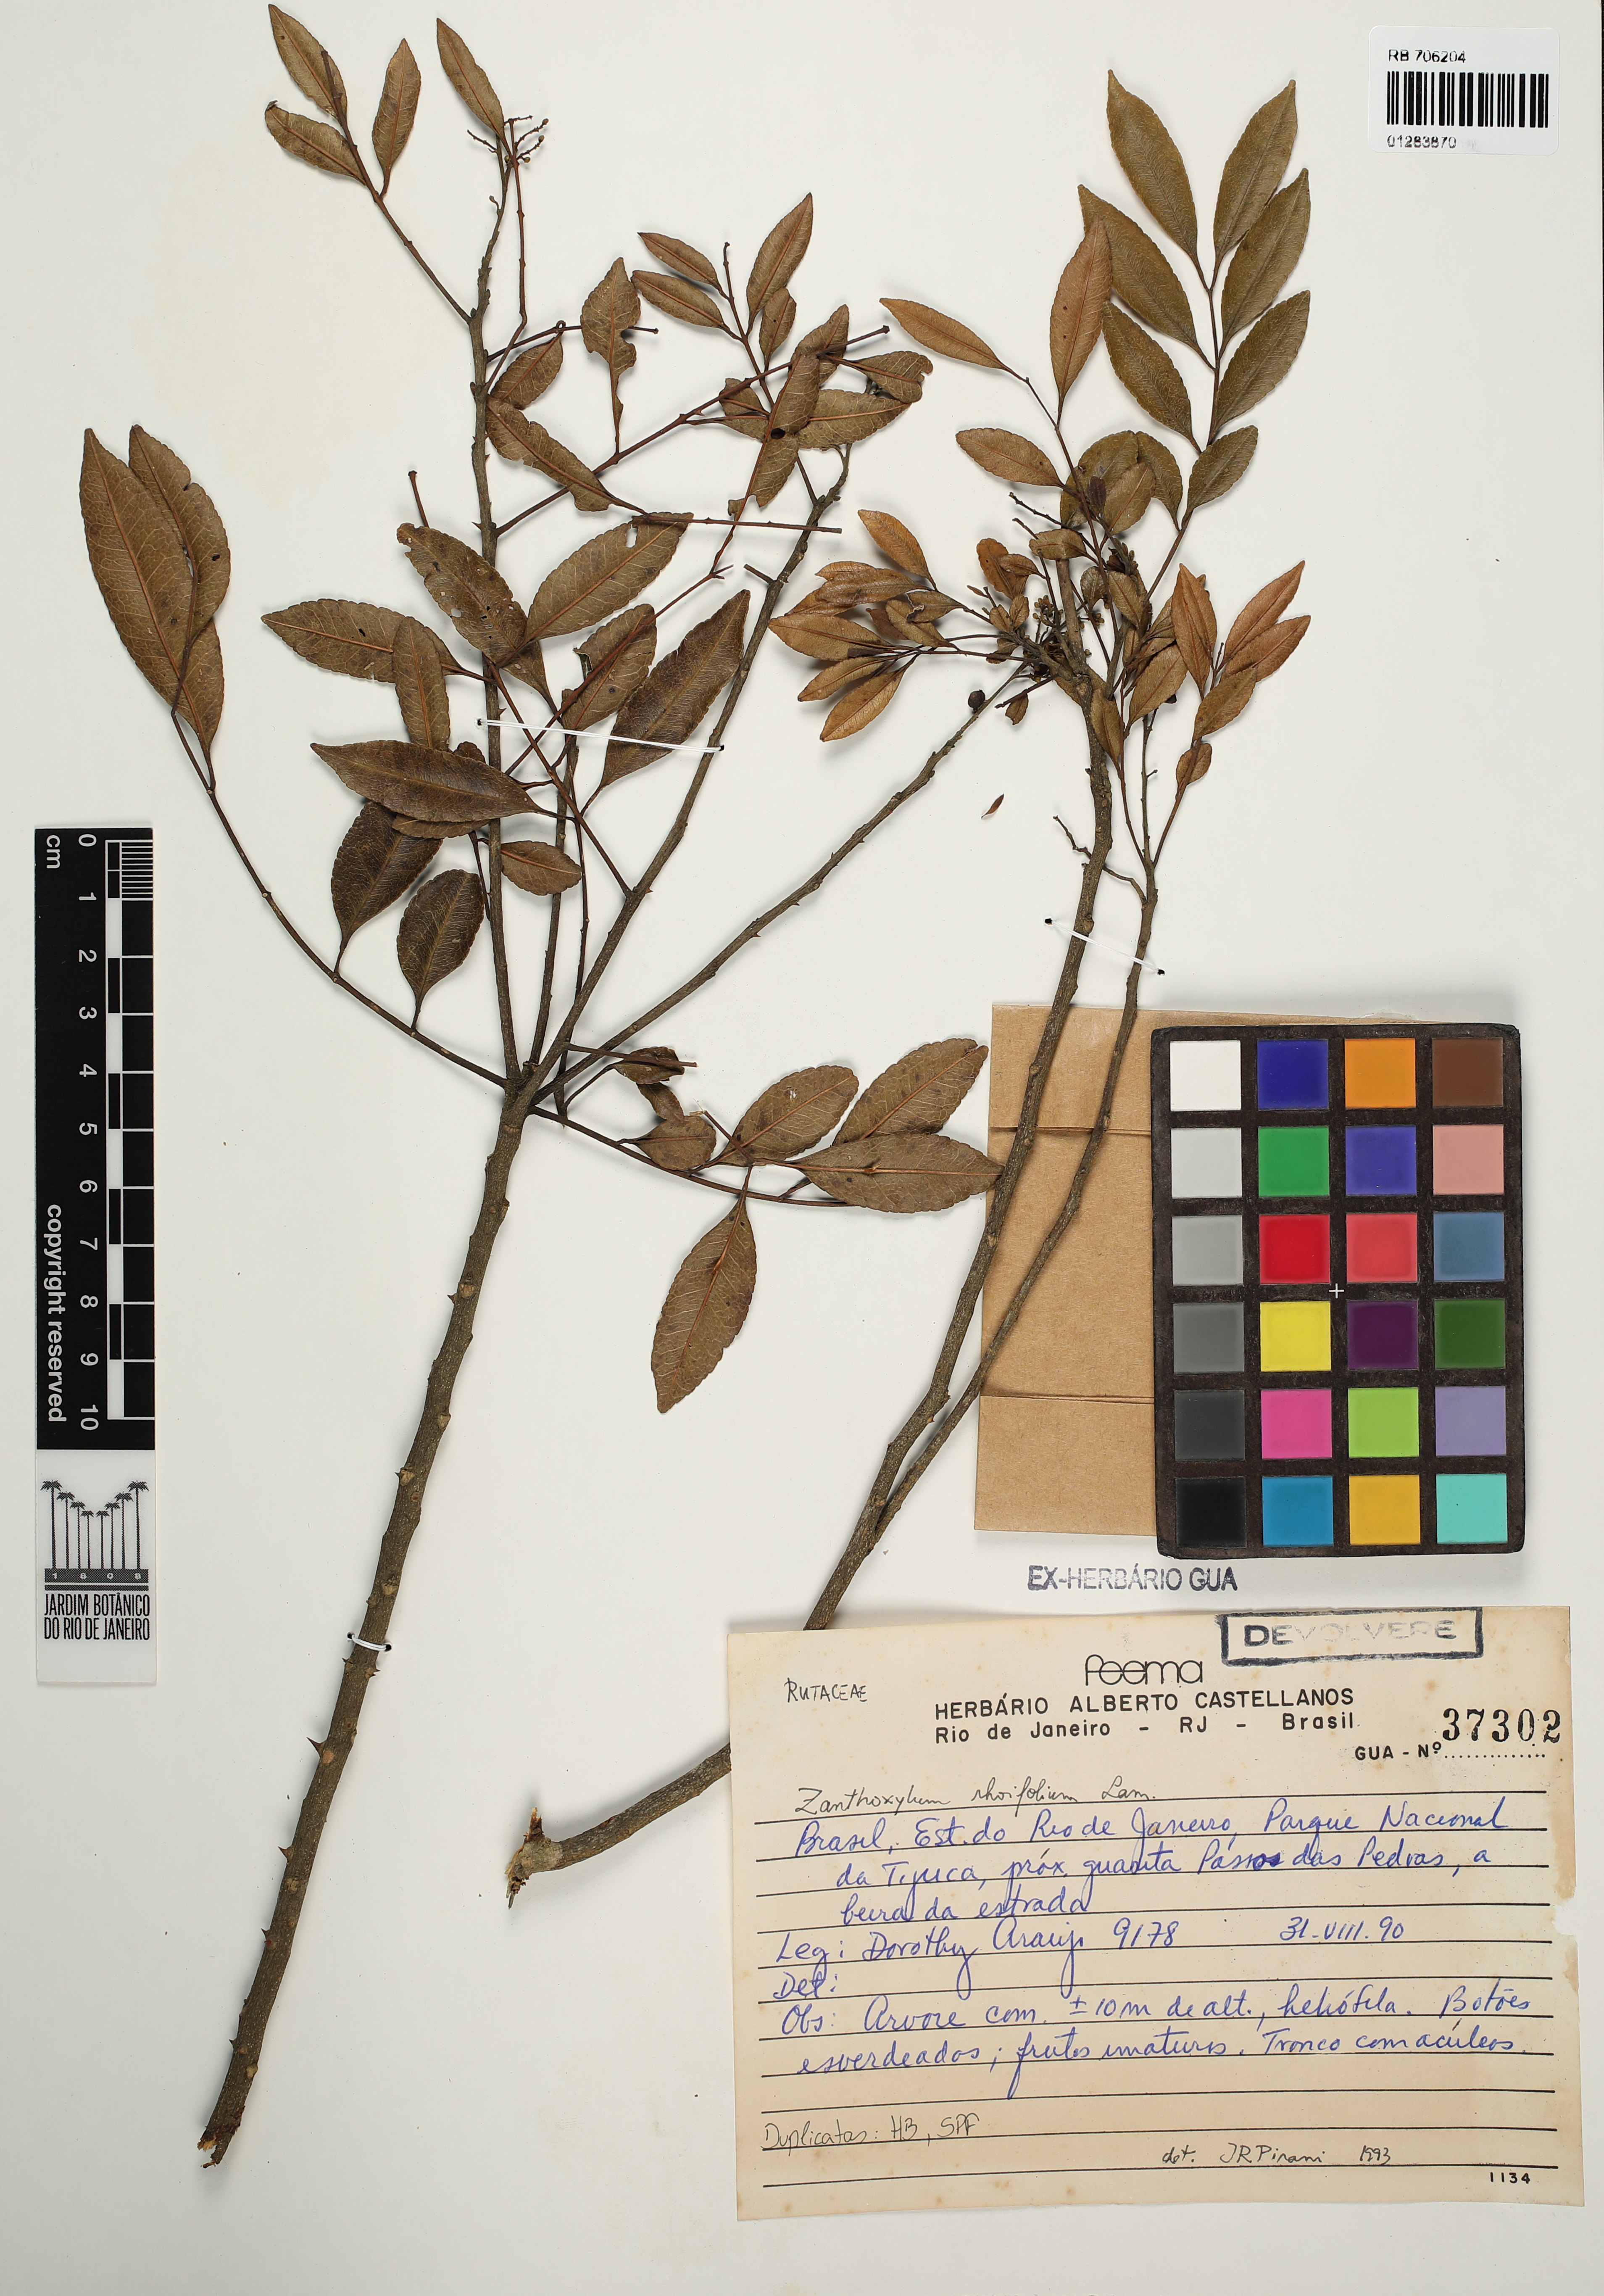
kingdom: Plantae
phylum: Tracheophyta
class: Magnoliopsida
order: Sapindales
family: Rutaceae
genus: Zanthoxylum
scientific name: Zanthoxylum rhoifolium
